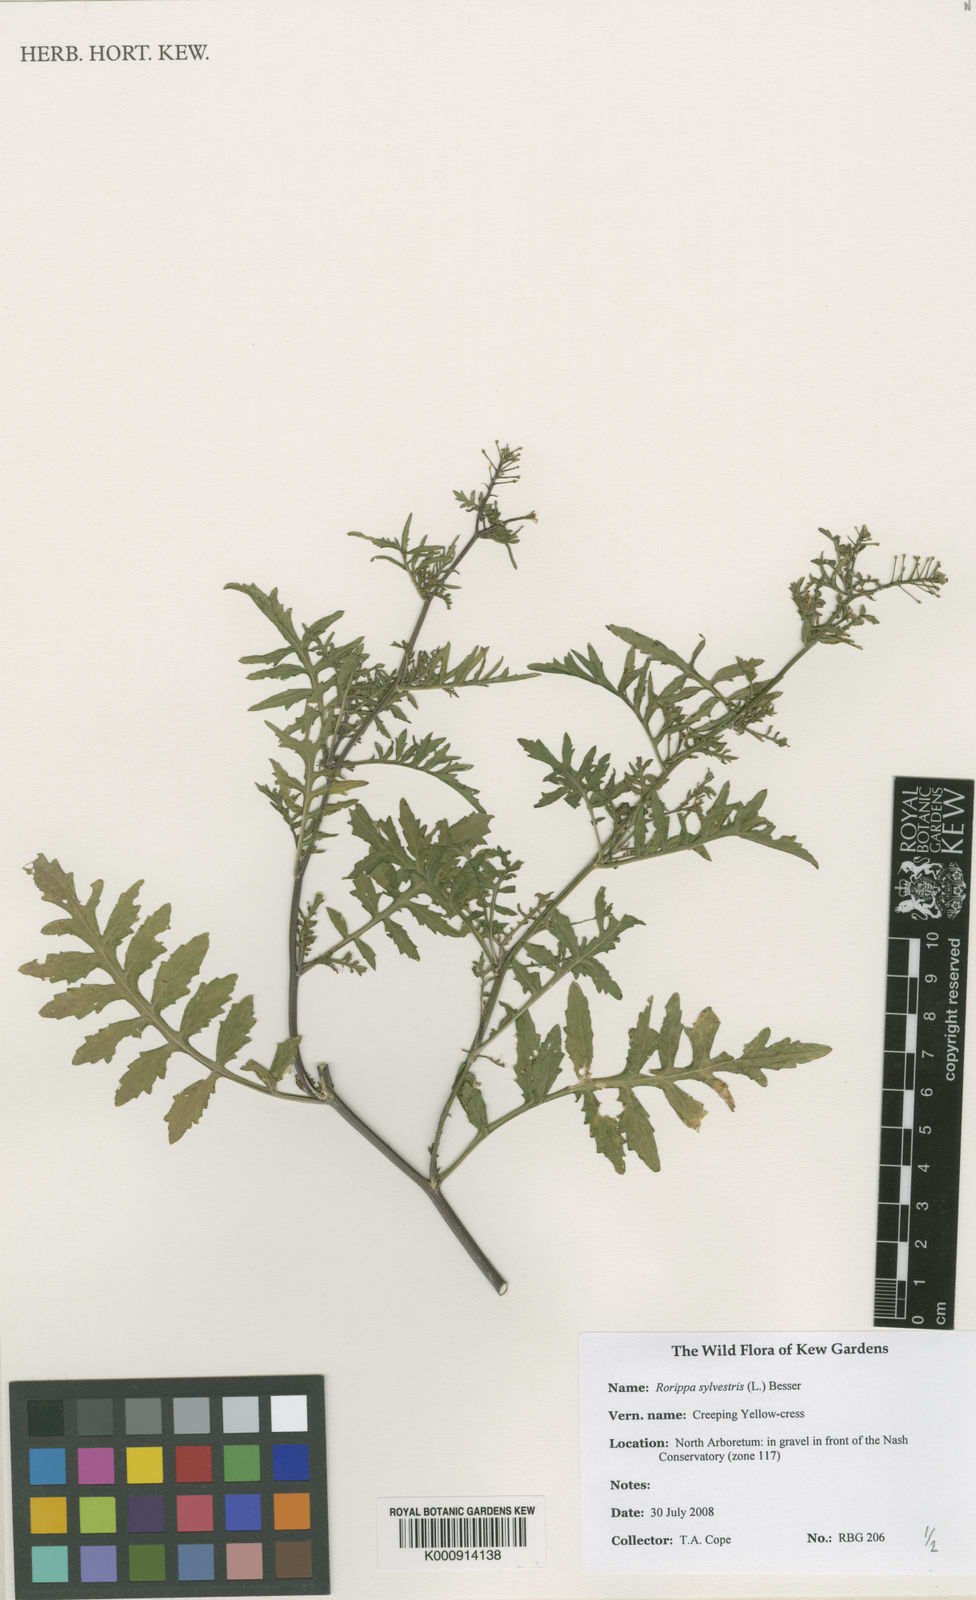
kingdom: Plantae
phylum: Tracheophyta
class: Magnoliopsida
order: Brassicales
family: Brassicaceae
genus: Rorippa
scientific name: Rorippa sylvestris
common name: Creeping yellowcress
